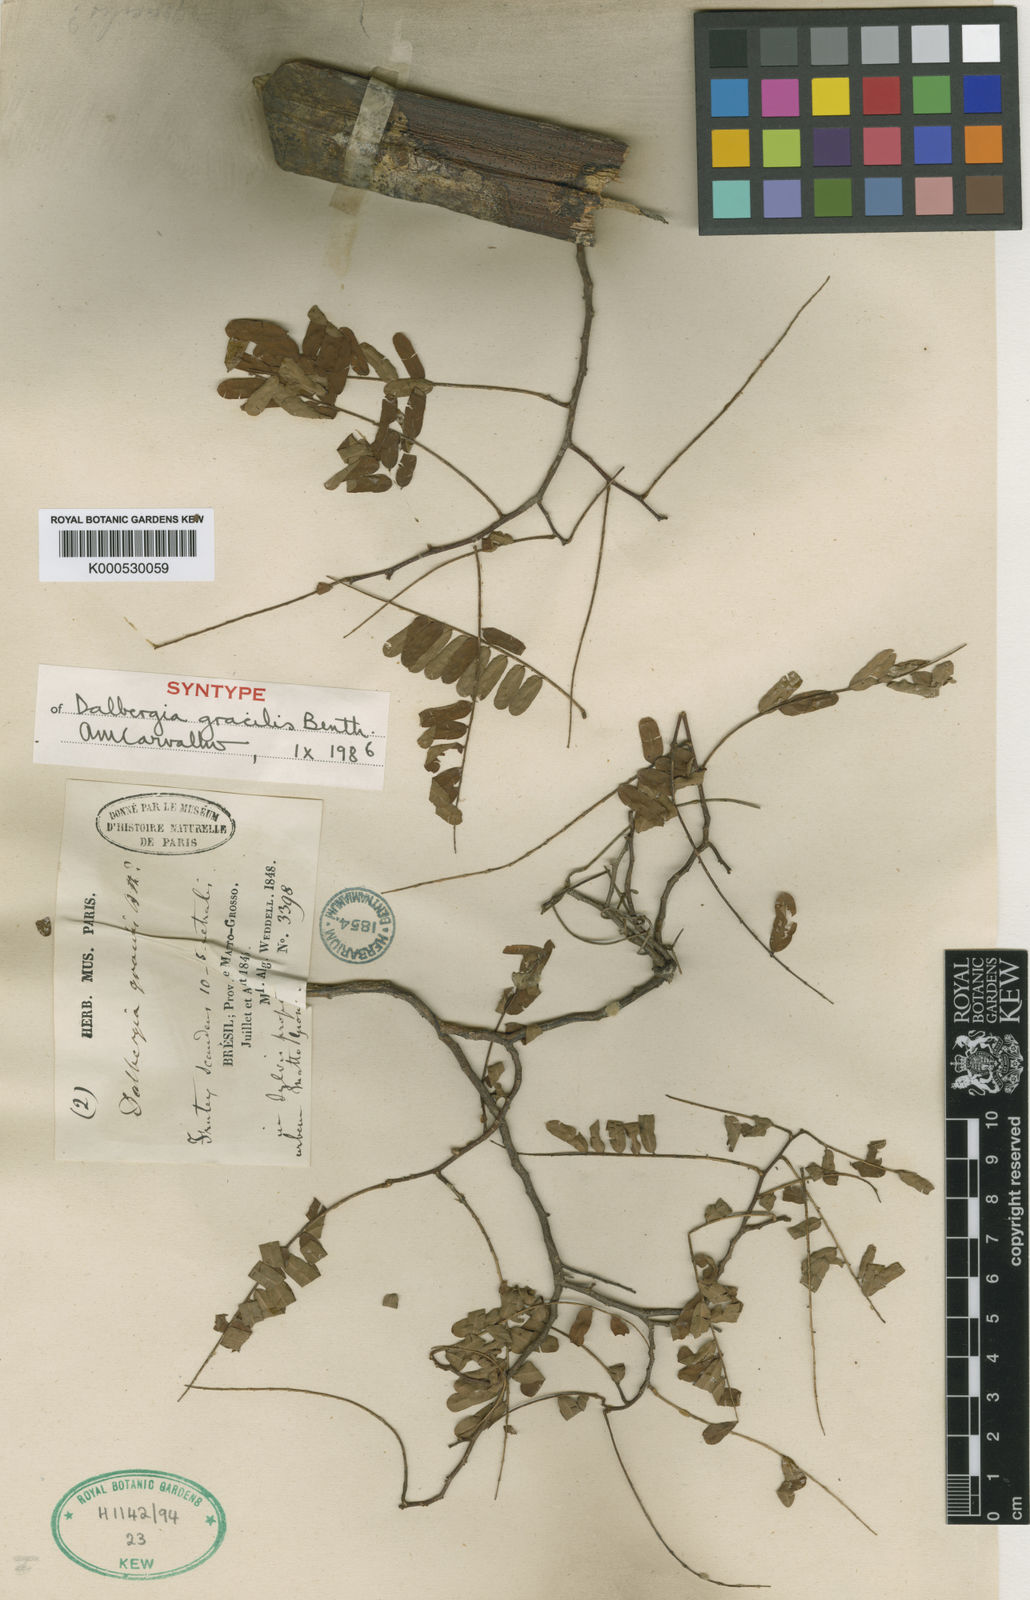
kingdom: Plantae
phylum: Tracheophyta
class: Magnoliopsida
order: Fabales
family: Fabaceae
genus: Dalbergia
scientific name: Dalbergia gracilis
